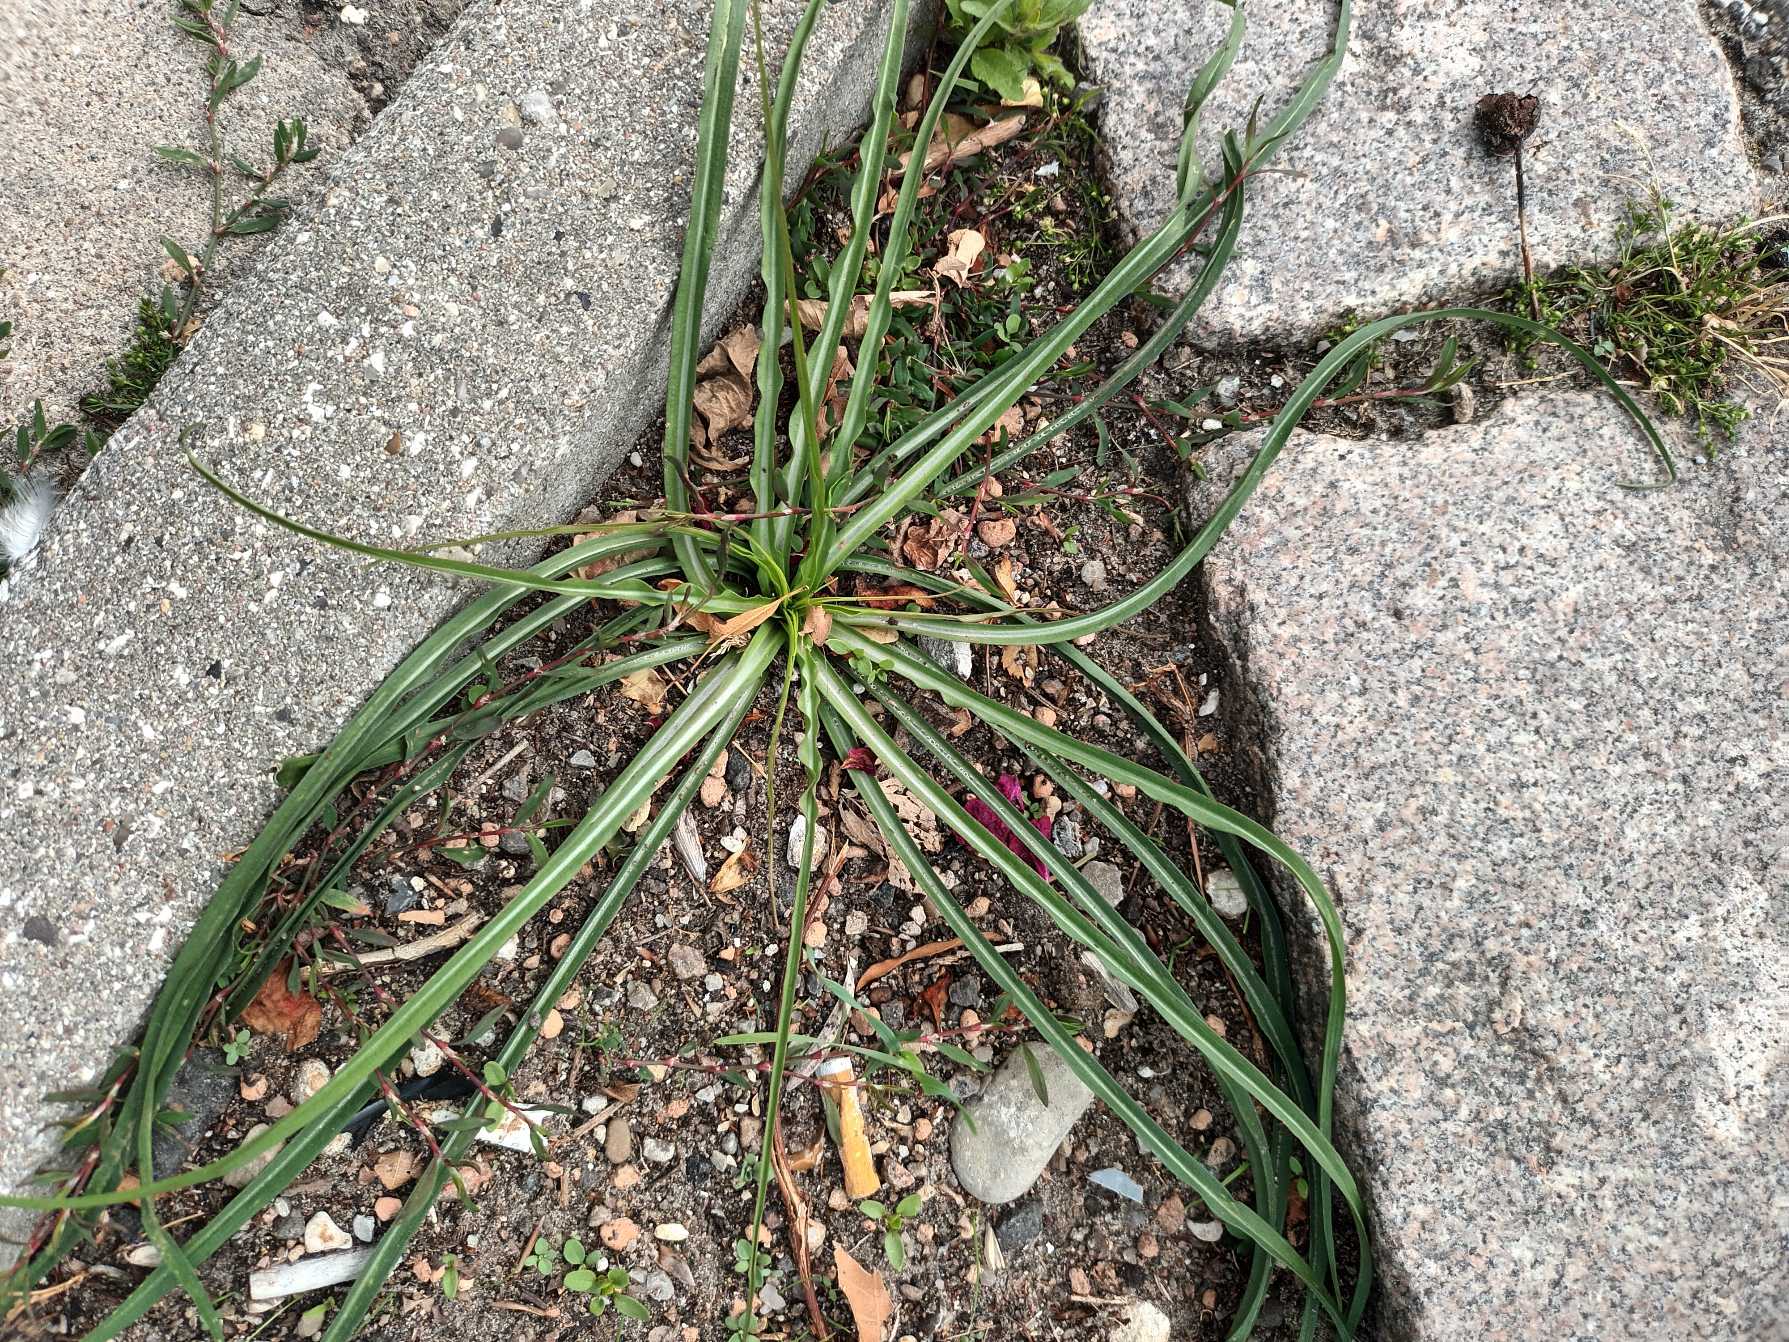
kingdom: Plantae
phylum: Tracheophyta
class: Magnoliopsida
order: Asterales
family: Asteraceae
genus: Tragopogon
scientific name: Tragopogon pratensis
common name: Gedeskæg
